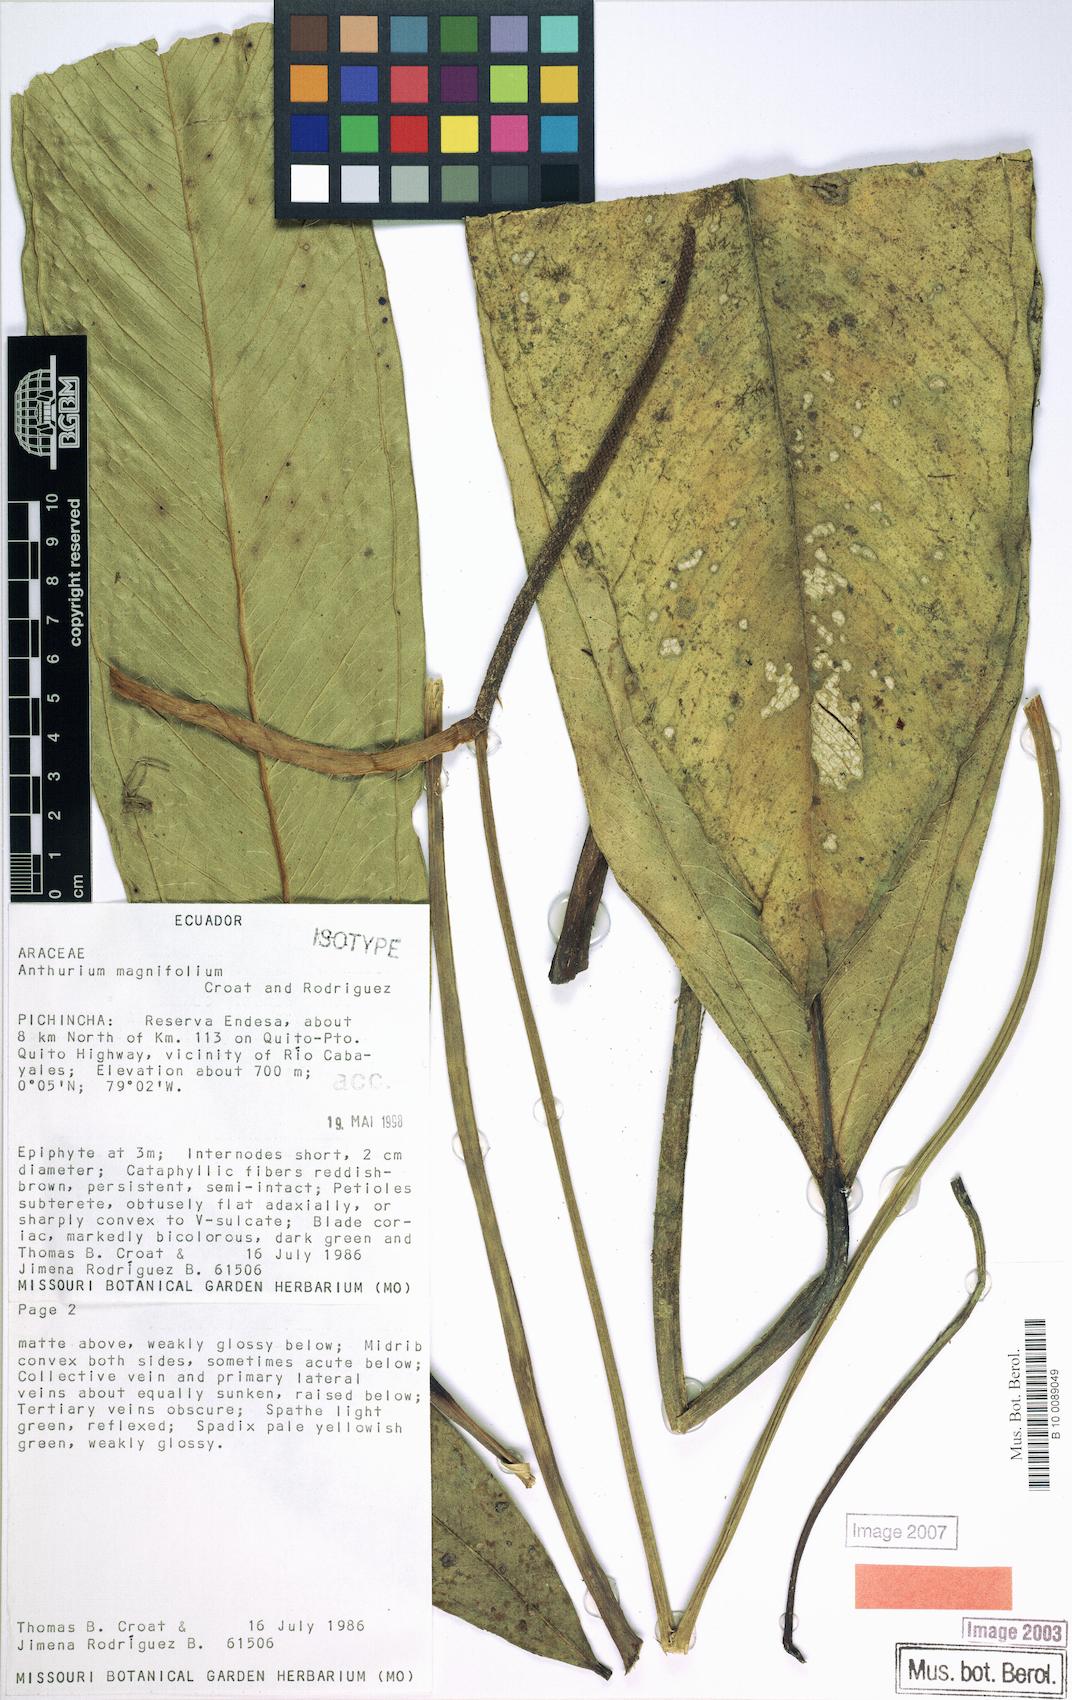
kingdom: Plantae
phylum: Tracheophyta
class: Liliopsida
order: Alismatales
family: Araceae
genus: Anthurium
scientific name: Anthurium magnifolium
